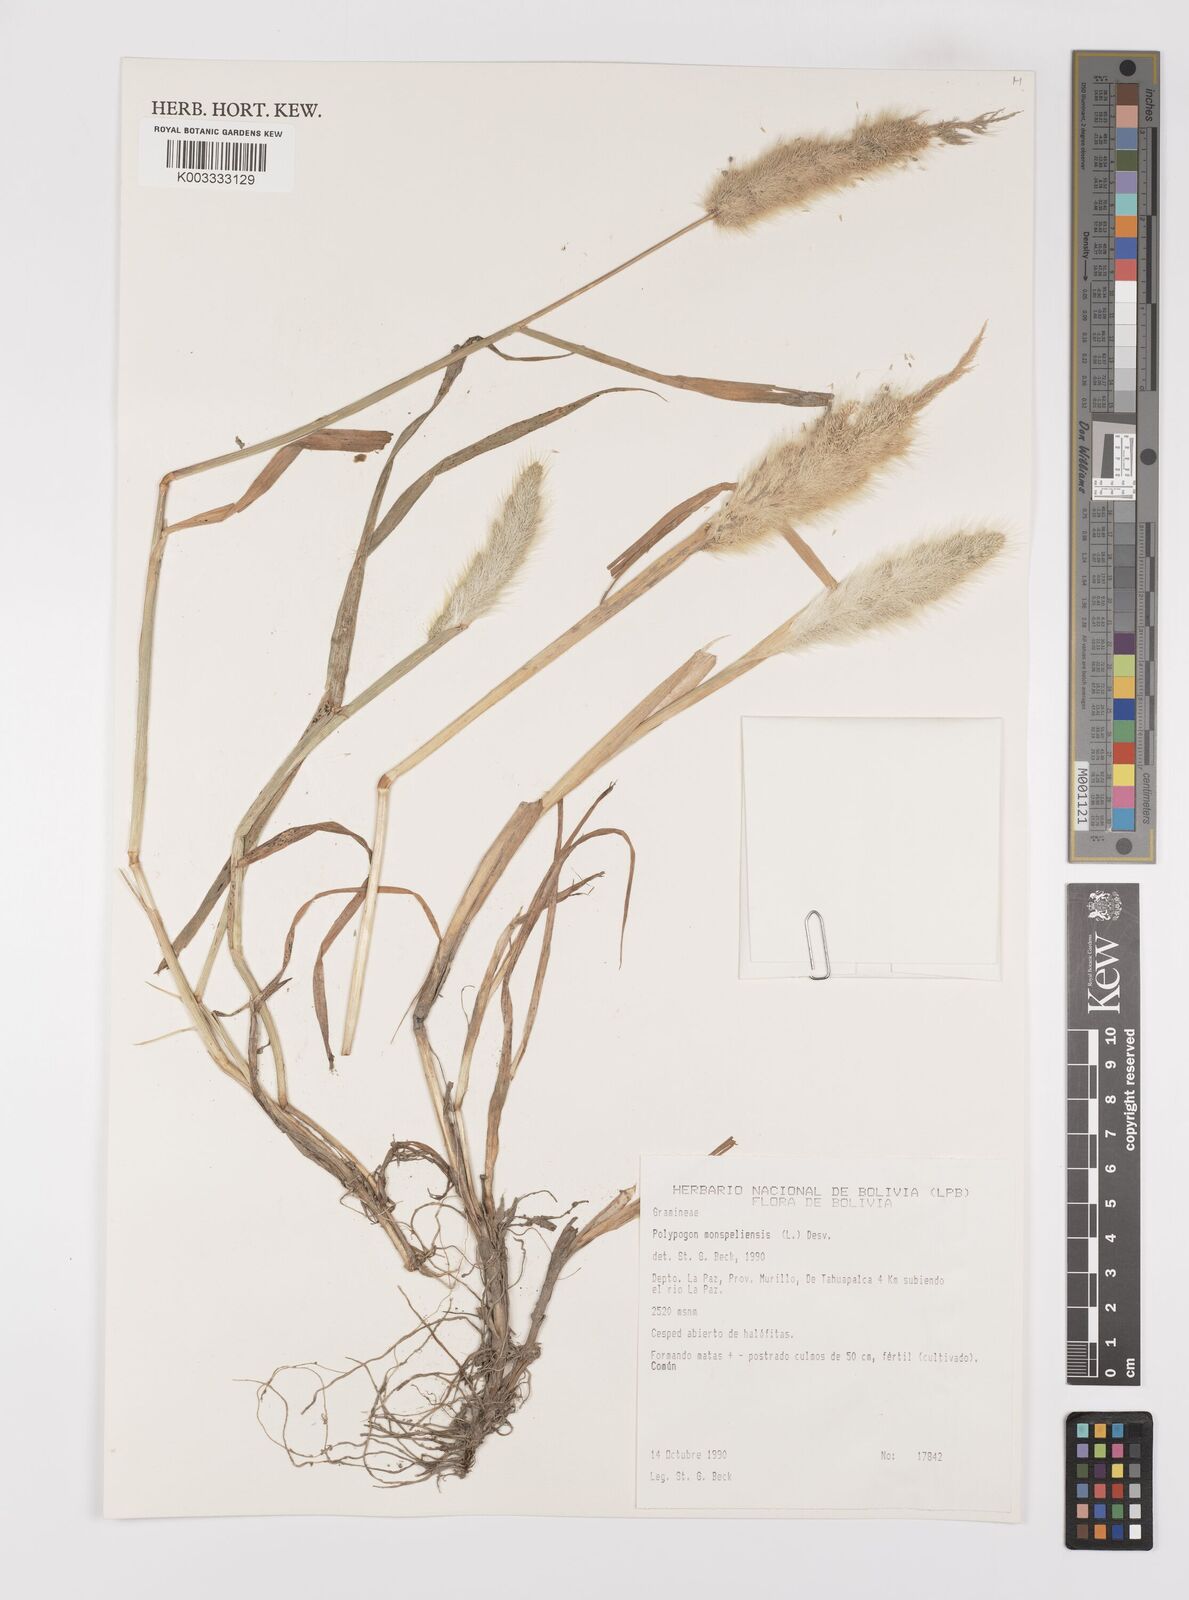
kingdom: Plantae
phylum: Tracheophyta
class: Liliopsida
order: Poales
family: Poaceae
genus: Polypogon
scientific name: Polypogon monspeliensis
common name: Annual rabbitsfoot grass
